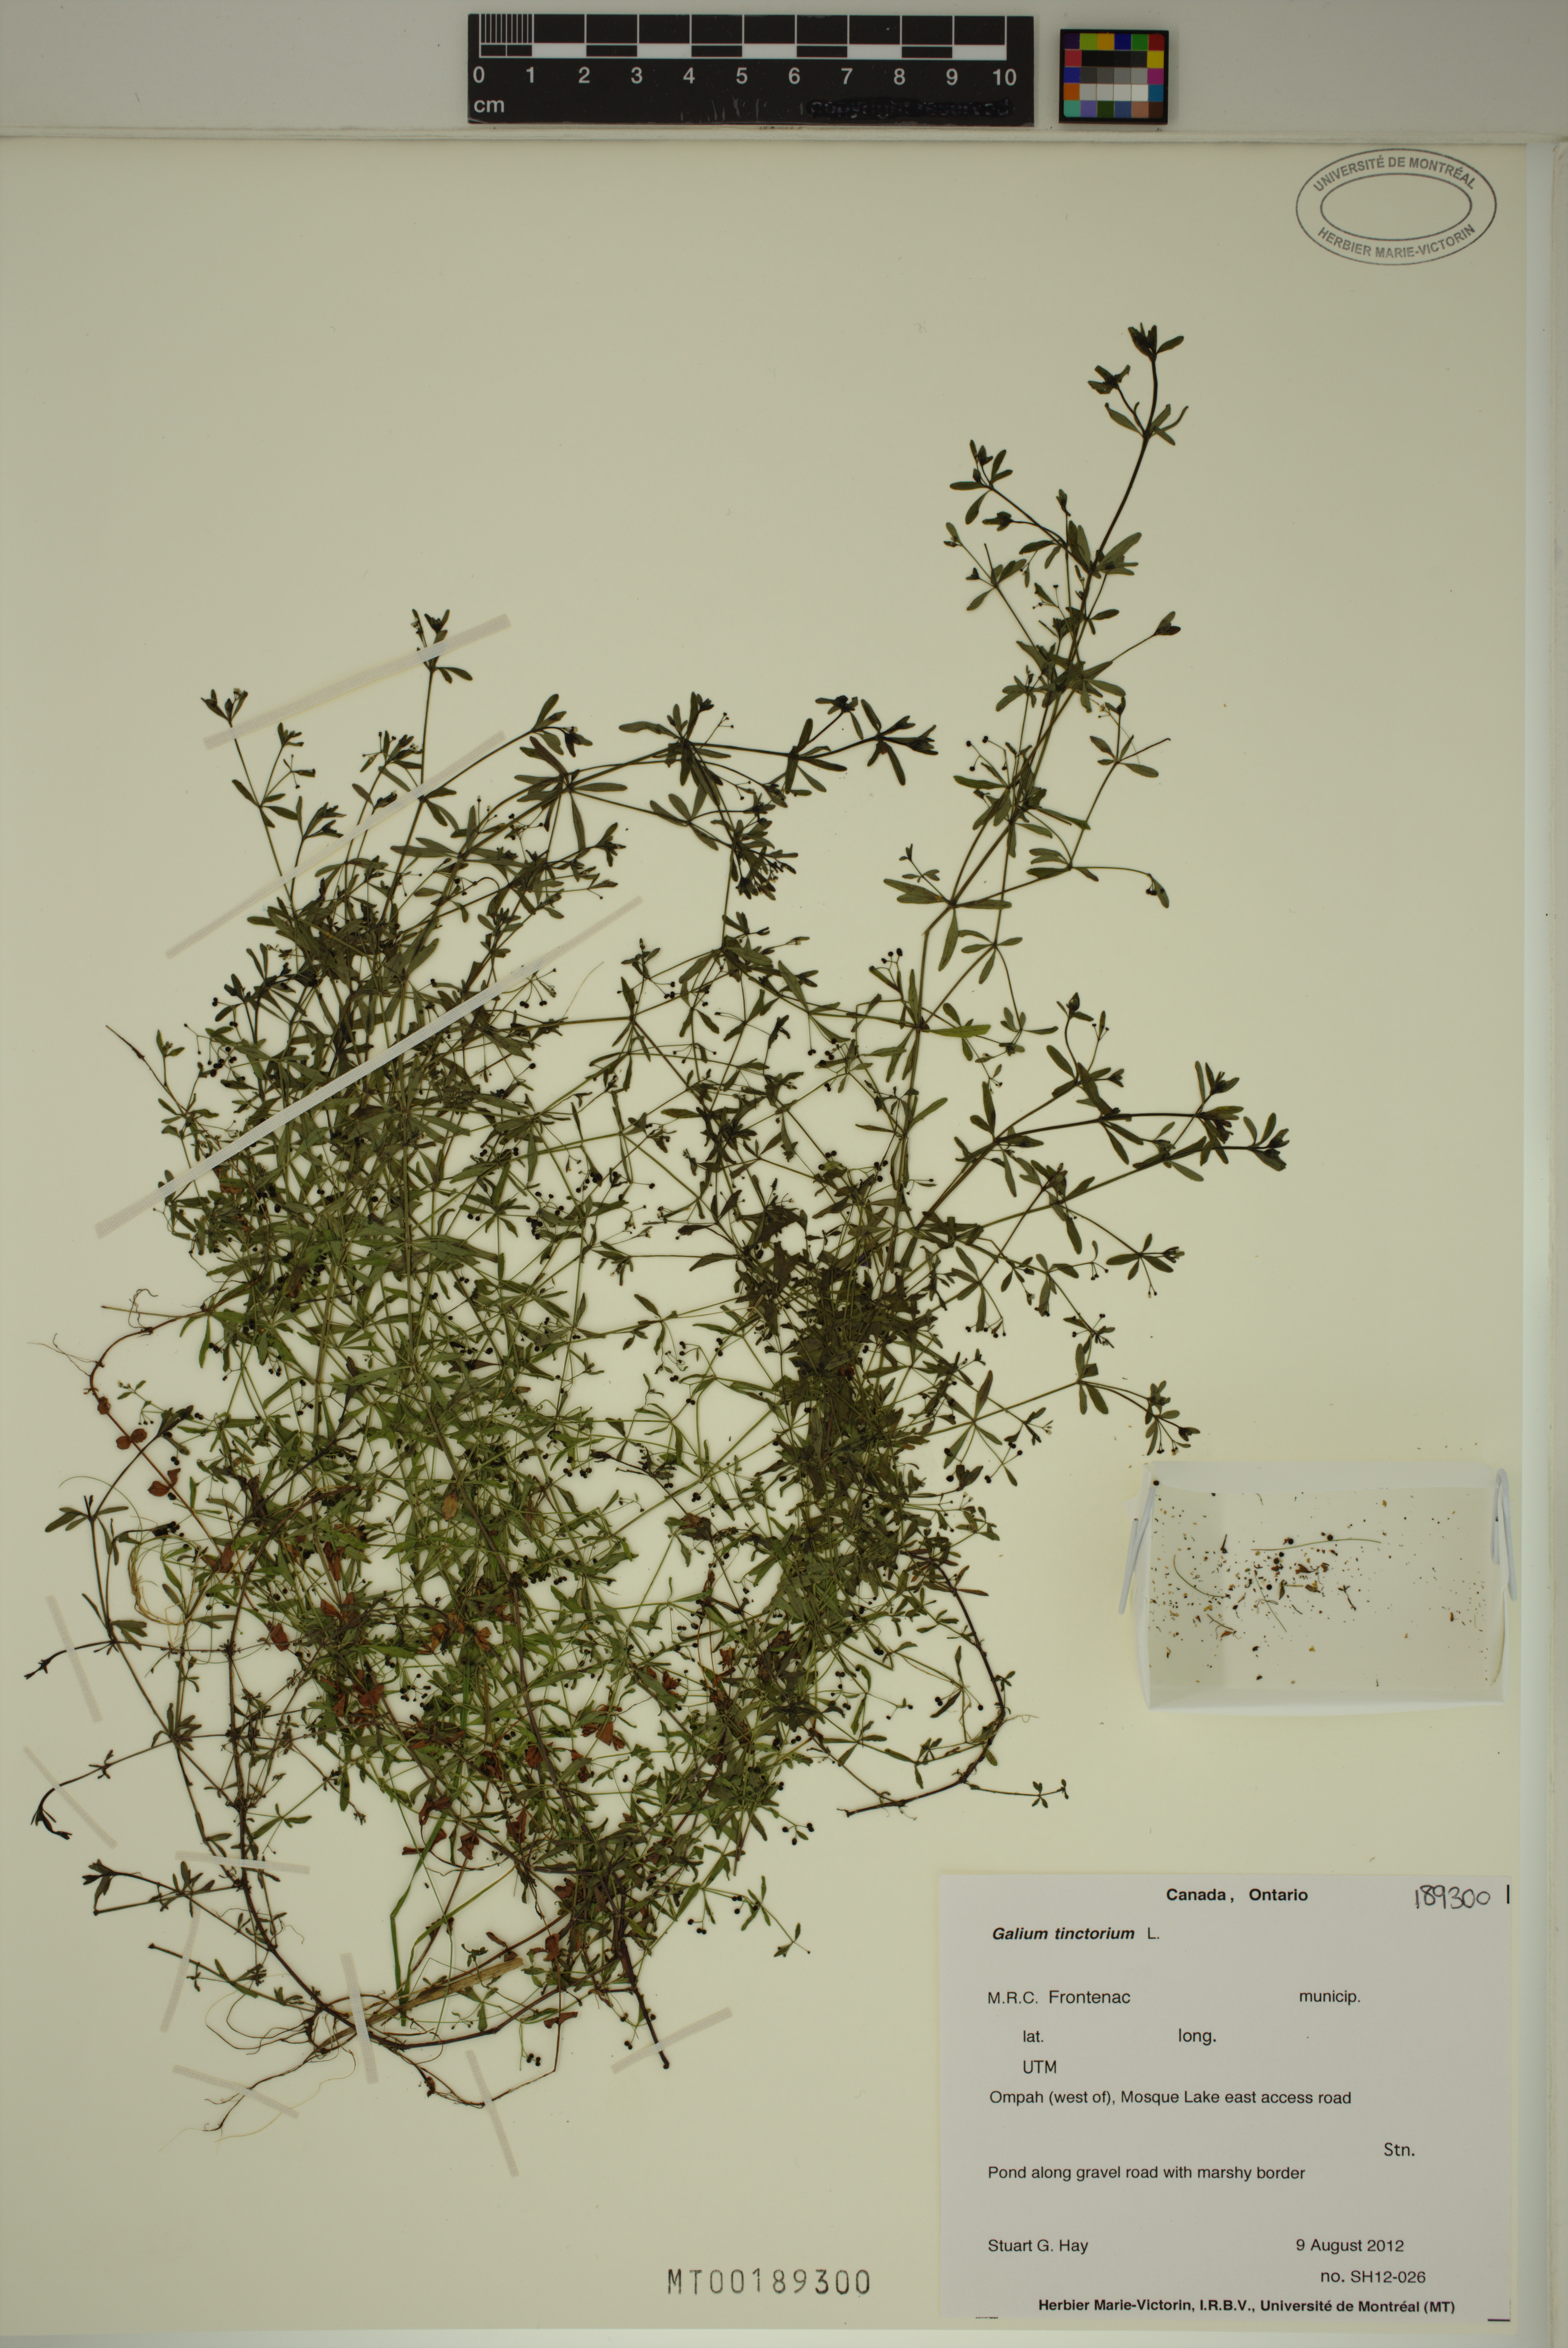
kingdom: Plantae
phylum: Tracheophyta
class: Magnoliopsida
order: Gentianales
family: Rubiaceae
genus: Galium
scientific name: Galium tinctorium
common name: Bedstraw
